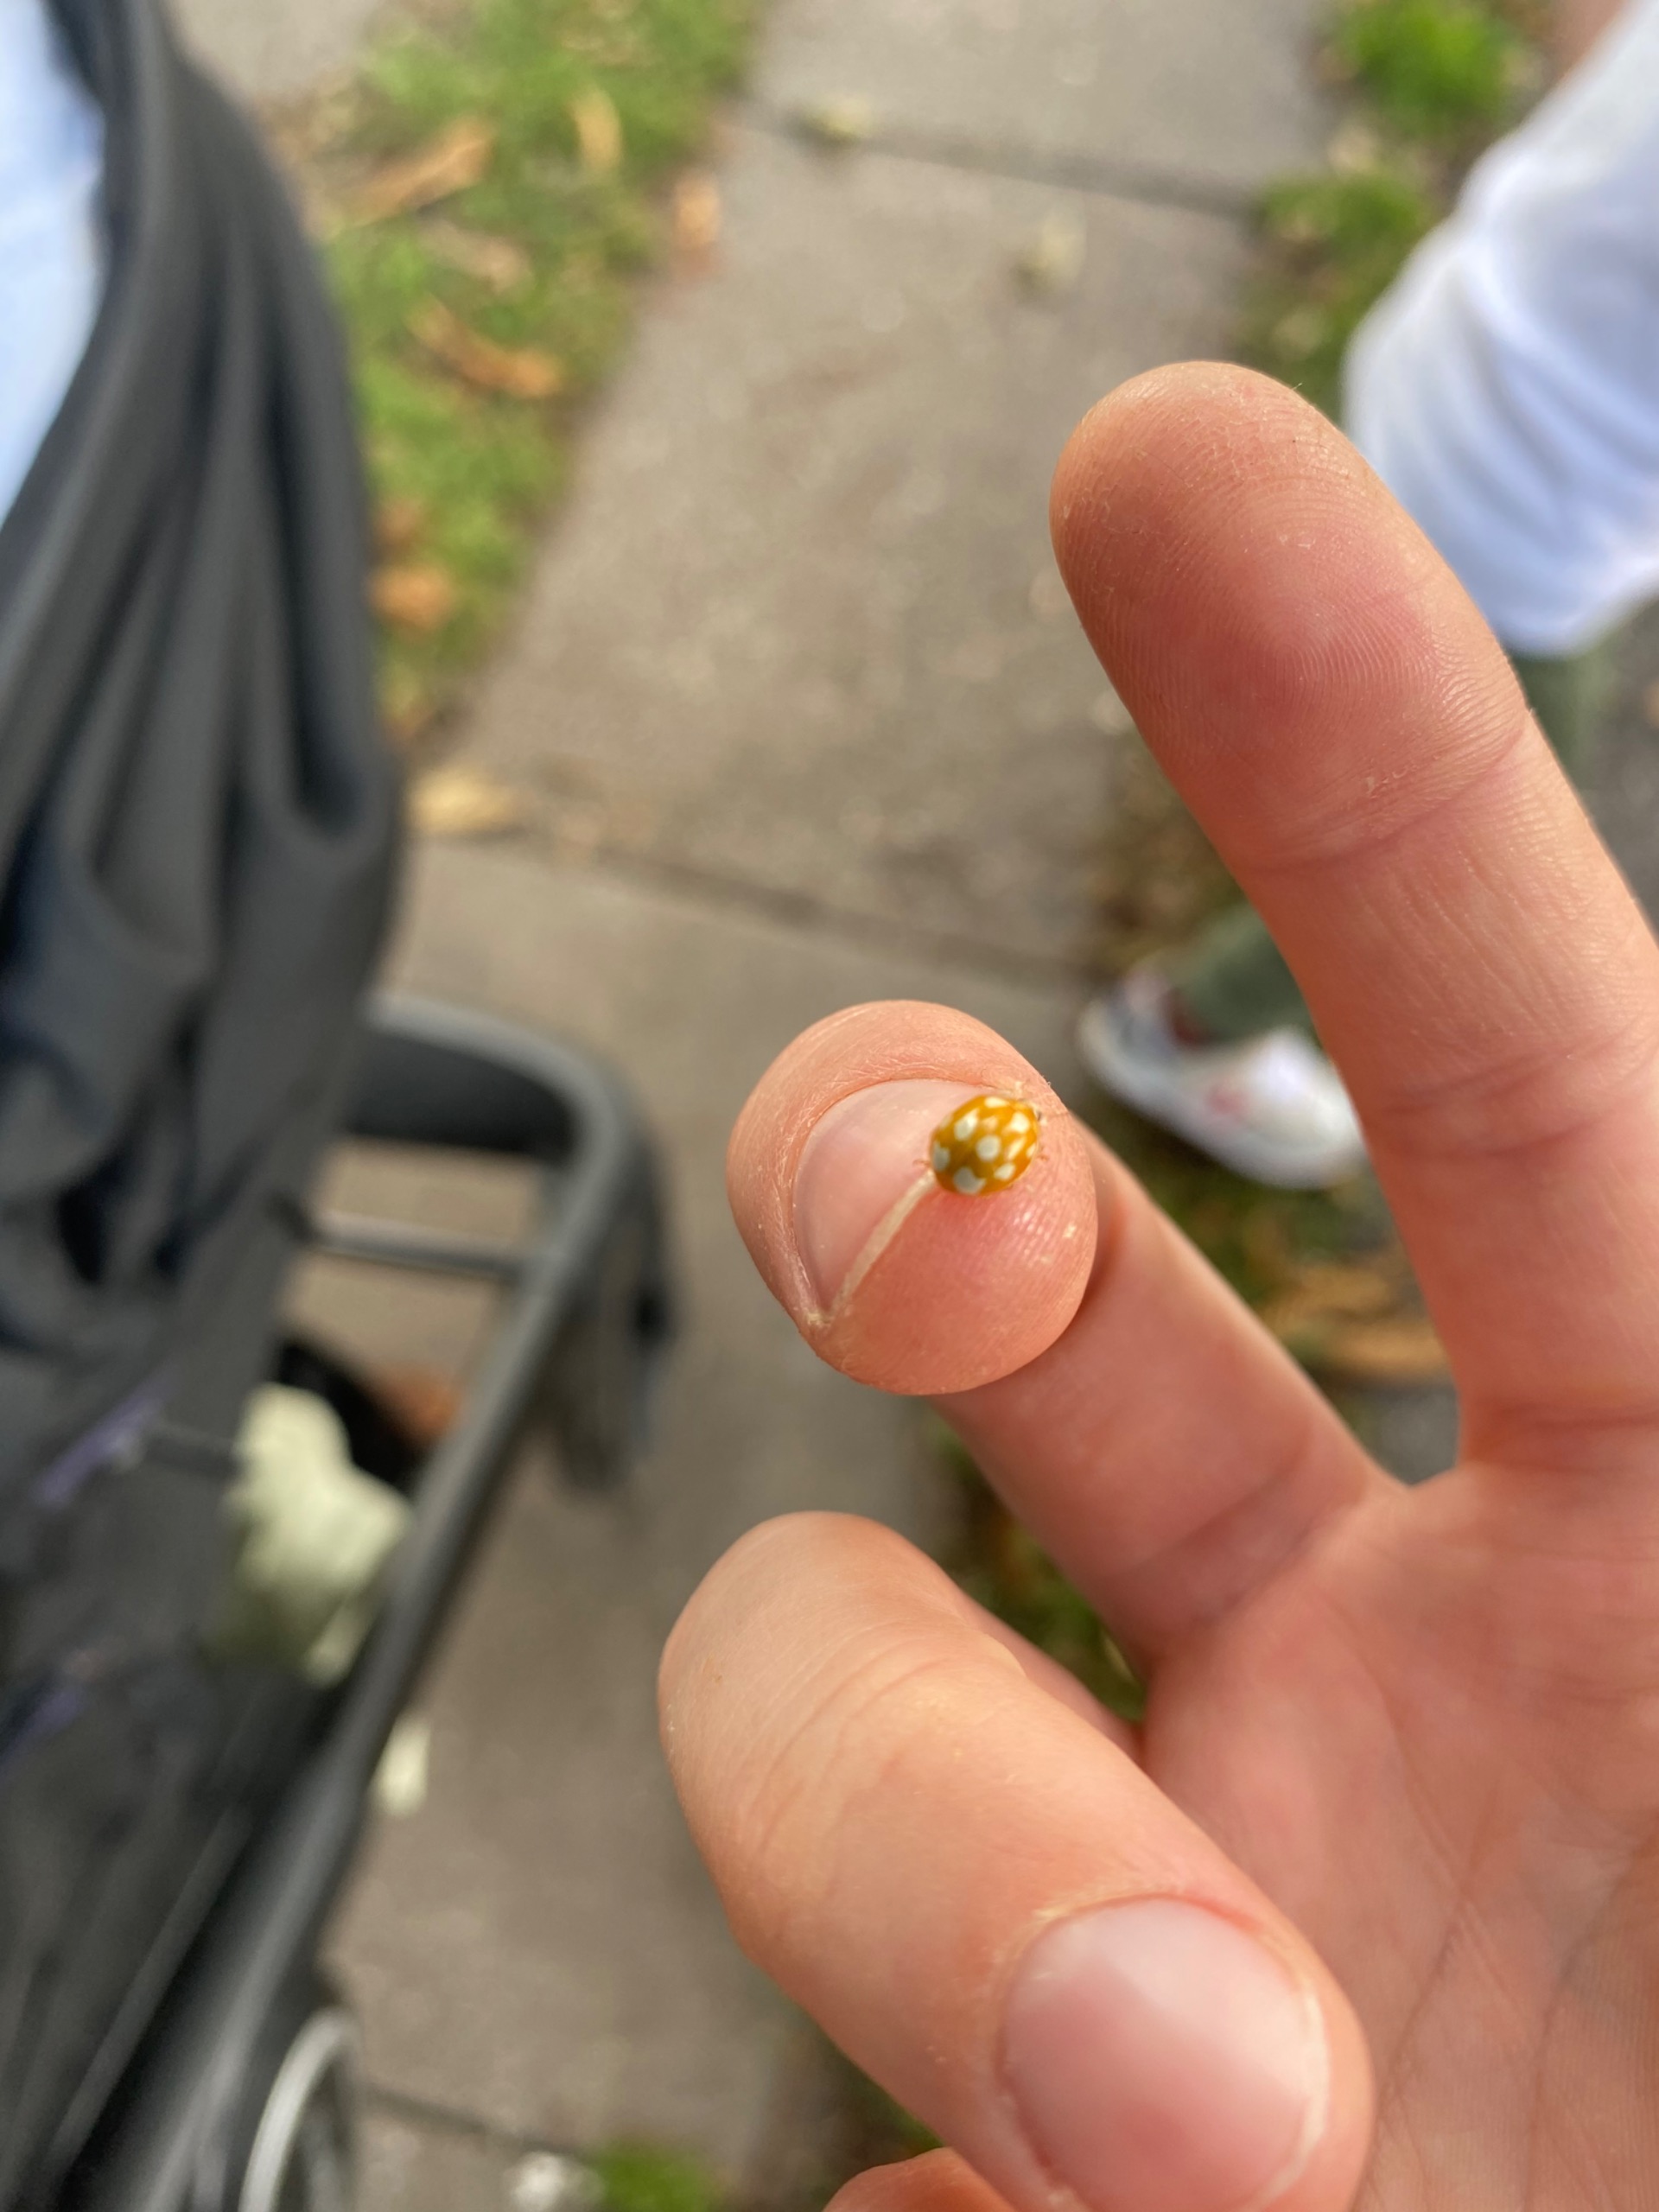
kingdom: Animalia
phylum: Arthropoda
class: Insecta
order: Coleoptera
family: Coccinellidae
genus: Calvia
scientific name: Calvia decemguttata
